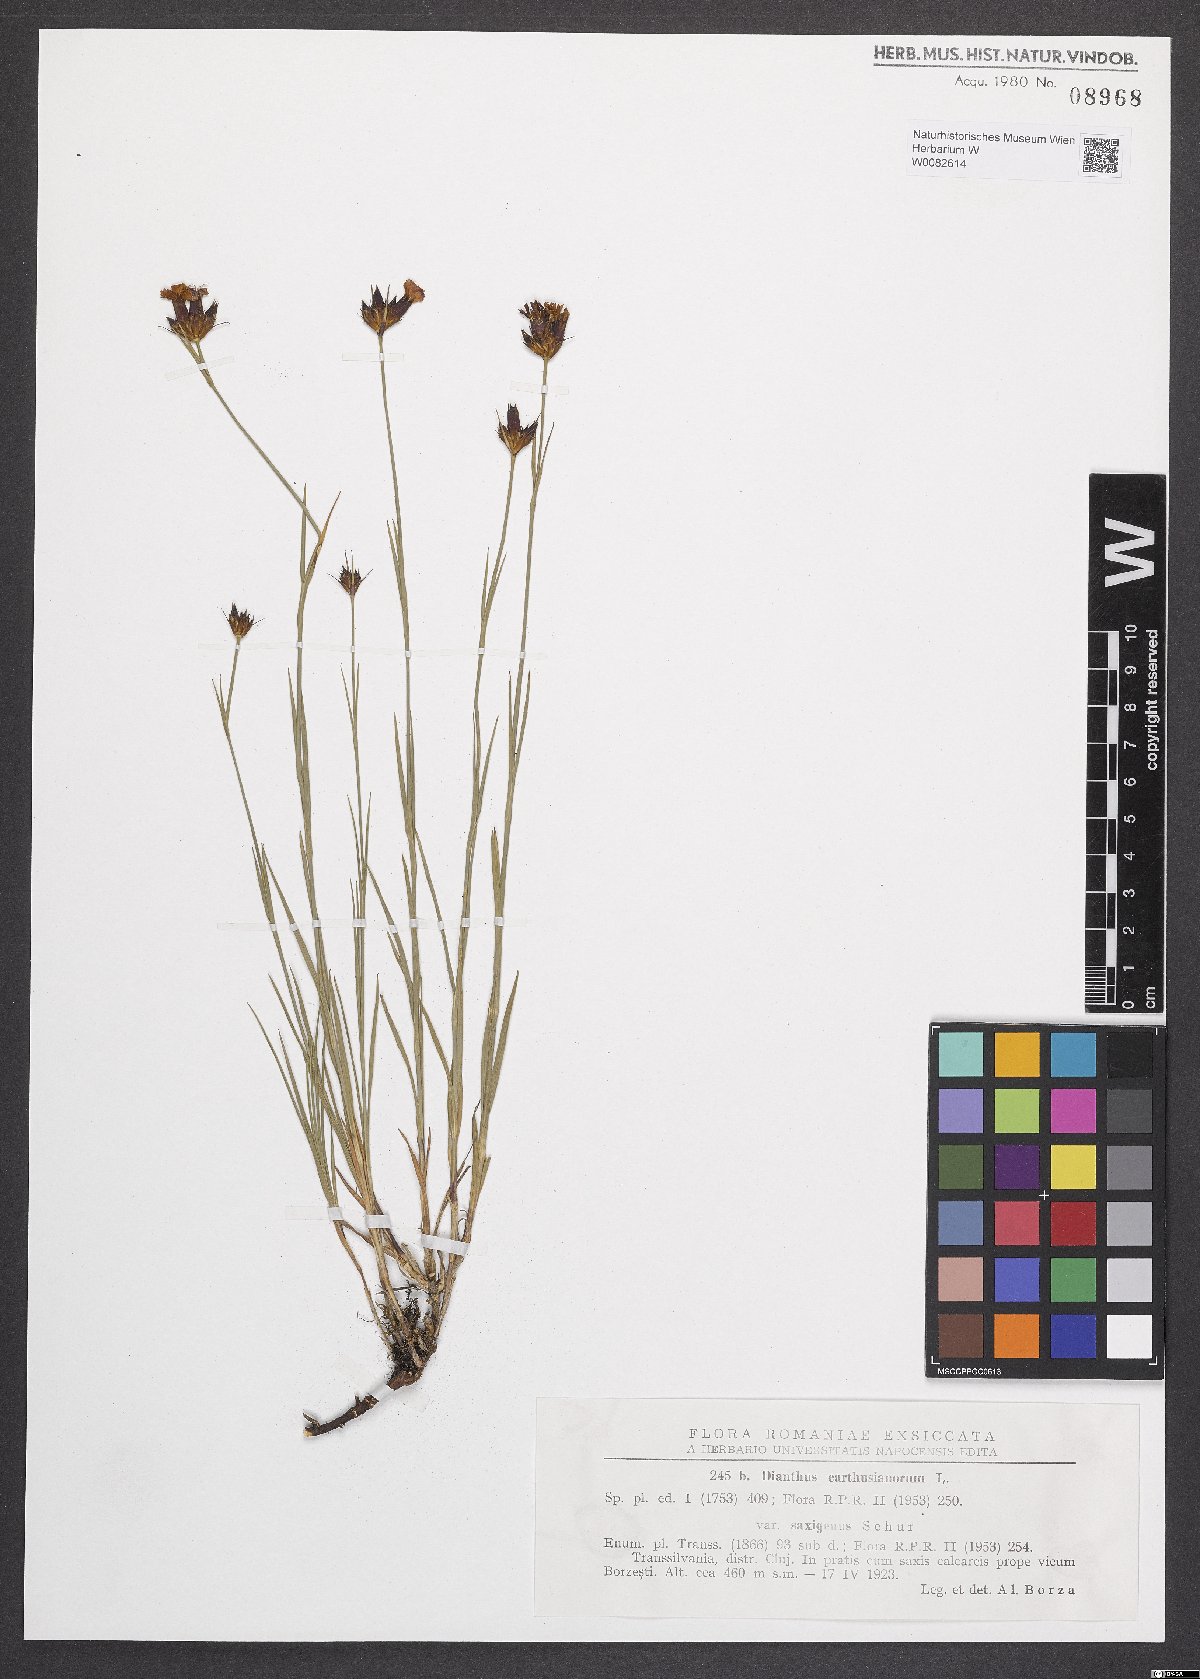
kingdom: Plantae
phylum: Tracheophyta
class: Magnoliopsida
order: Caryophyllales
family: Caryophyllaceae
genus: Dianthus
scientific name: Dianthus carthusianorum
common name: Carthusian pink
